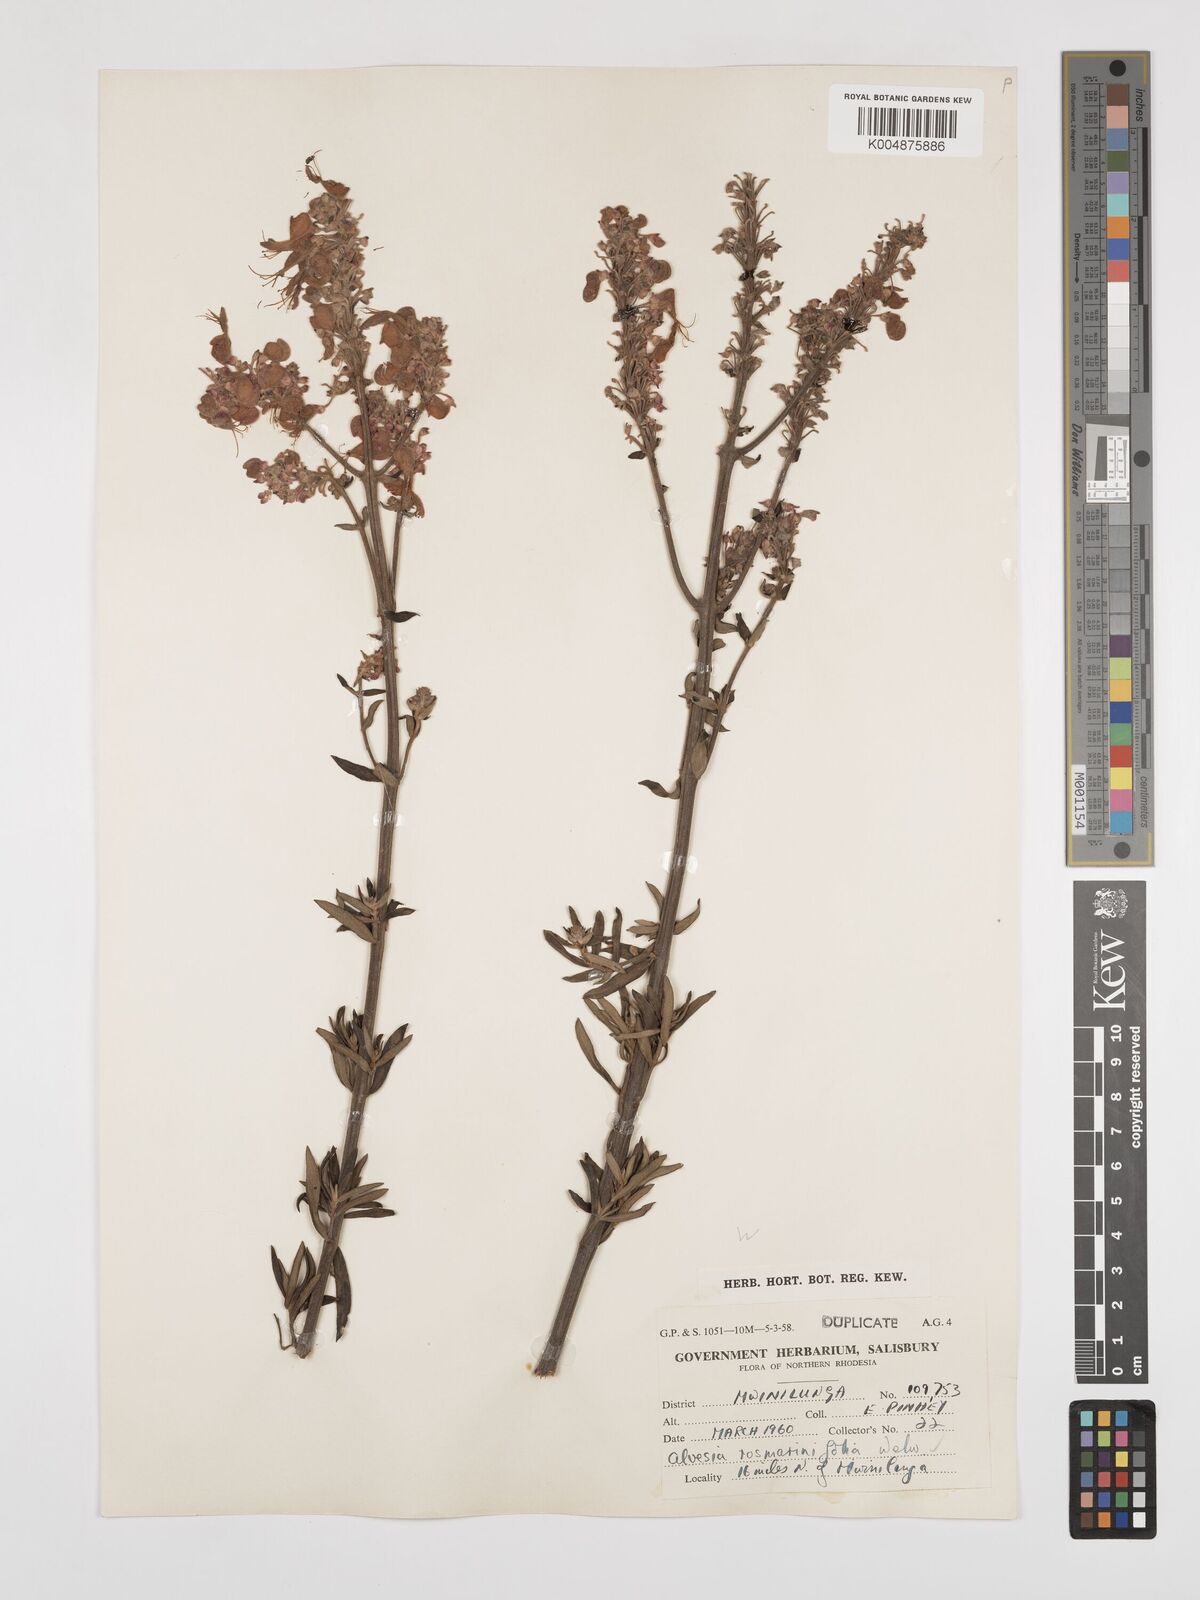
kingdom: Plantae
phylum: Tracheophyta
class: Magnoliopsida
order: Lamiales
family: Lamiaceae
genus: Alvesia
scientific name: Alvesia rosmarinifolia
